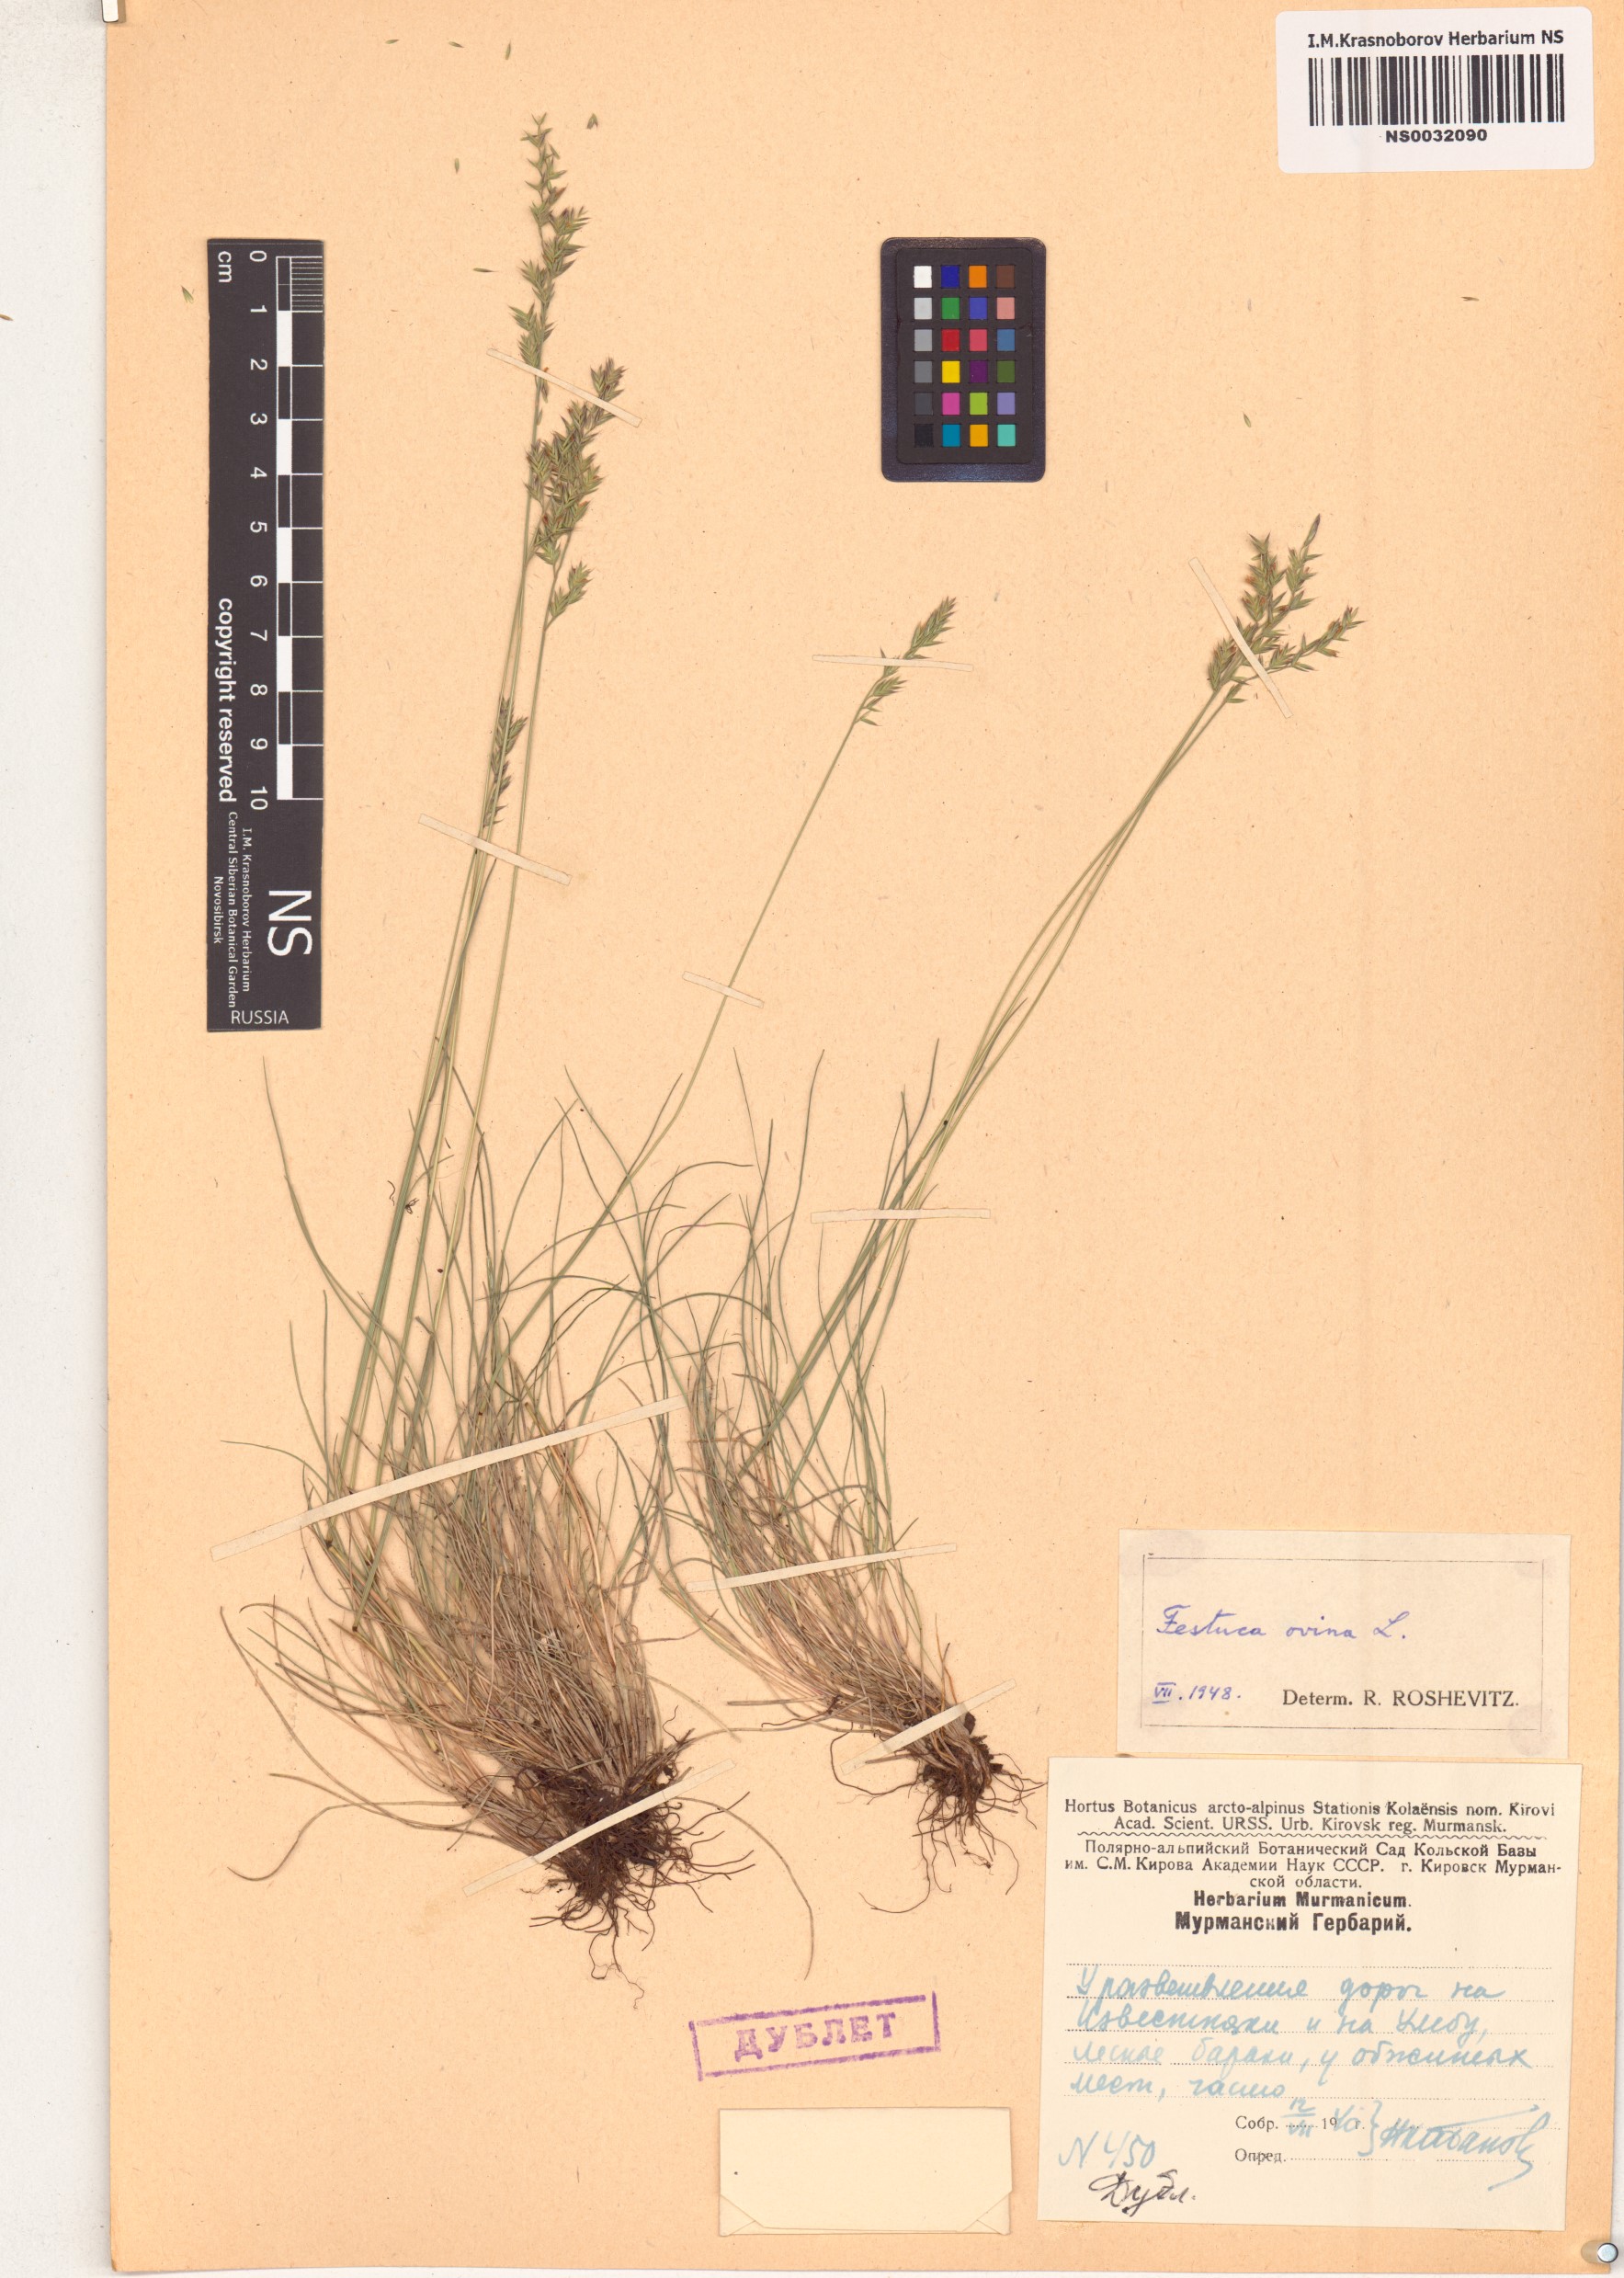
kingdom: Plantae
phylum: Tracheophyta
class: Liliopsida
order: Poales
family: Poaceae
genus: Festuca
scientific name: Festuca ovina
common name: Sheep fescue
